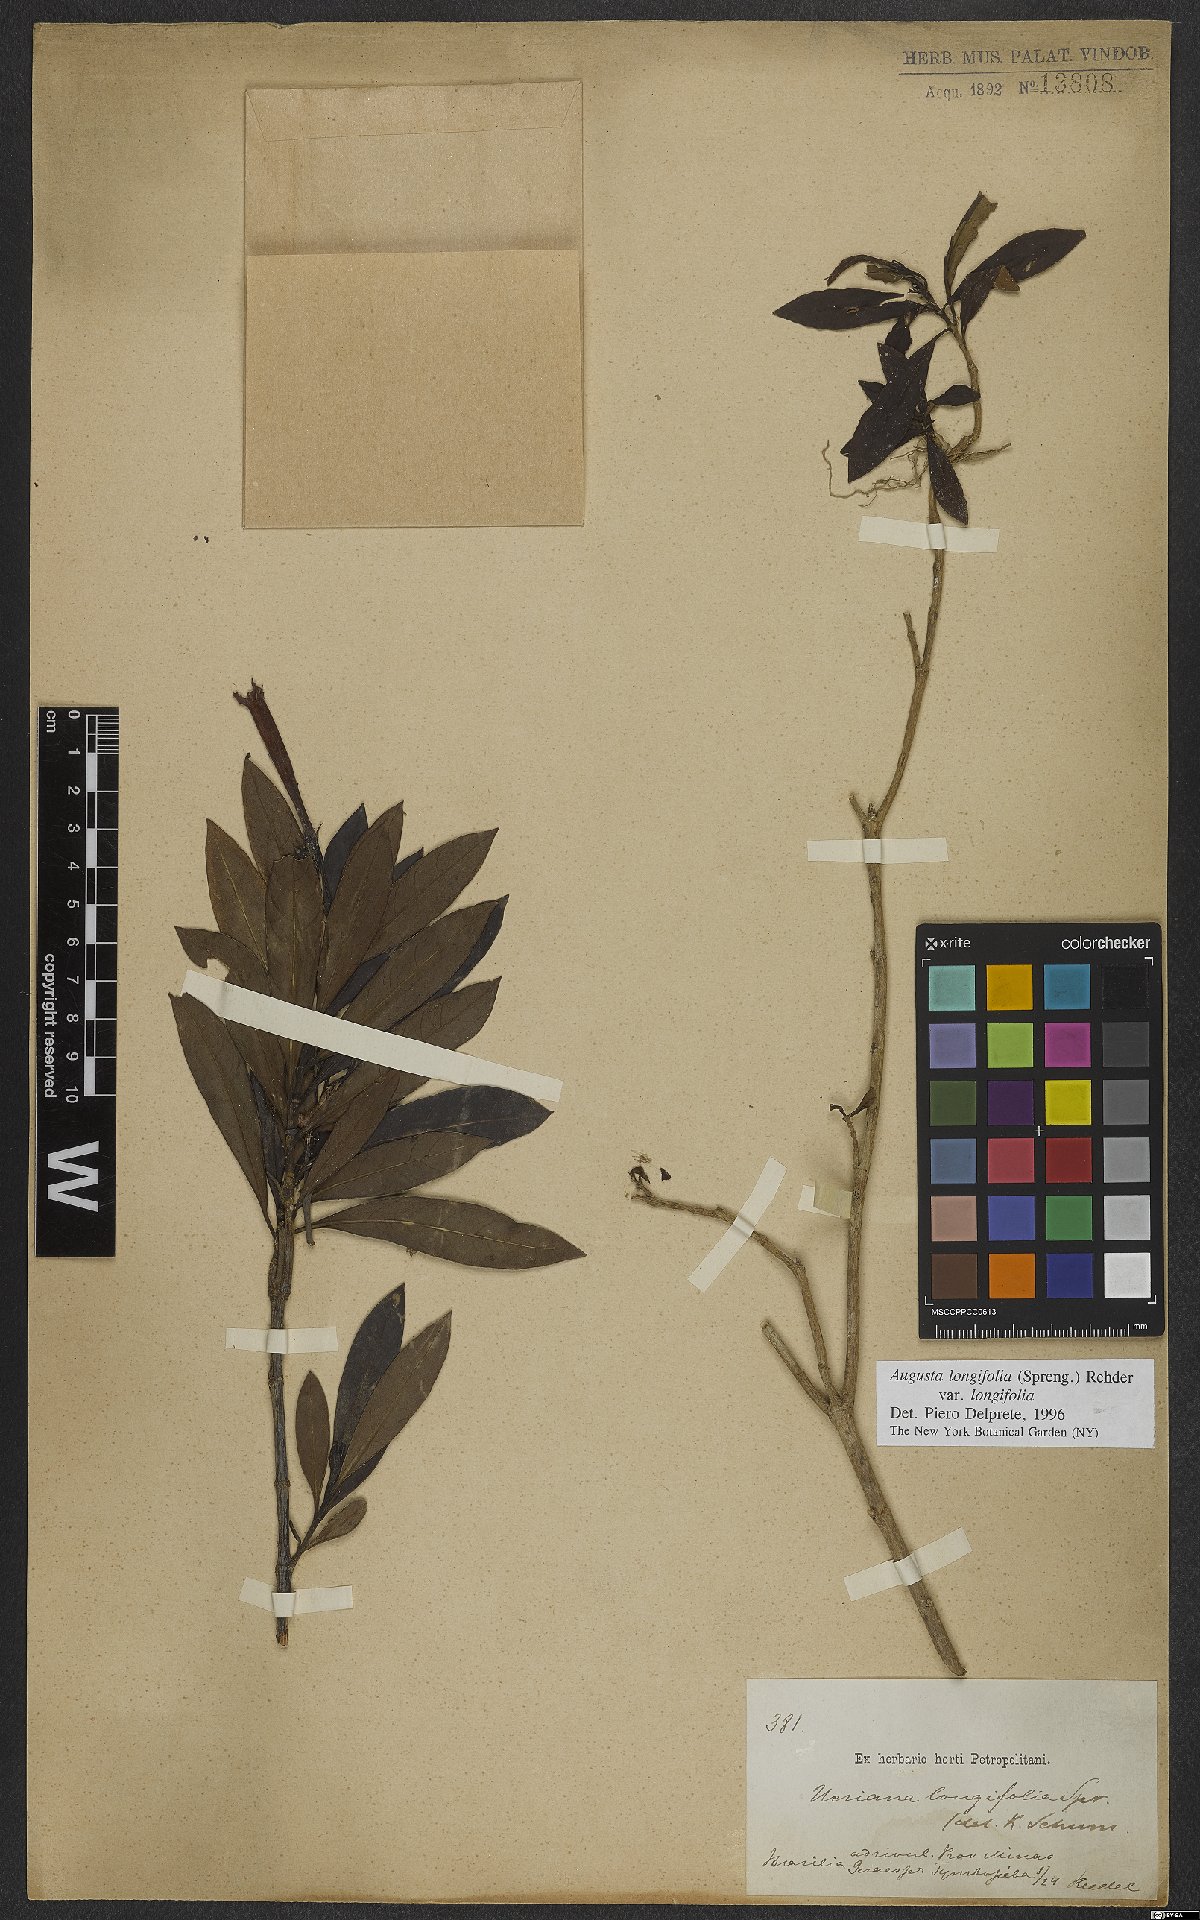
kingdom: Plantae
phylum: Tracheophyta
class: Magnoliopsida
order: Gentianales
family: Rubiaceae
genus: Augusta
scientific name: Augusta longifolia
